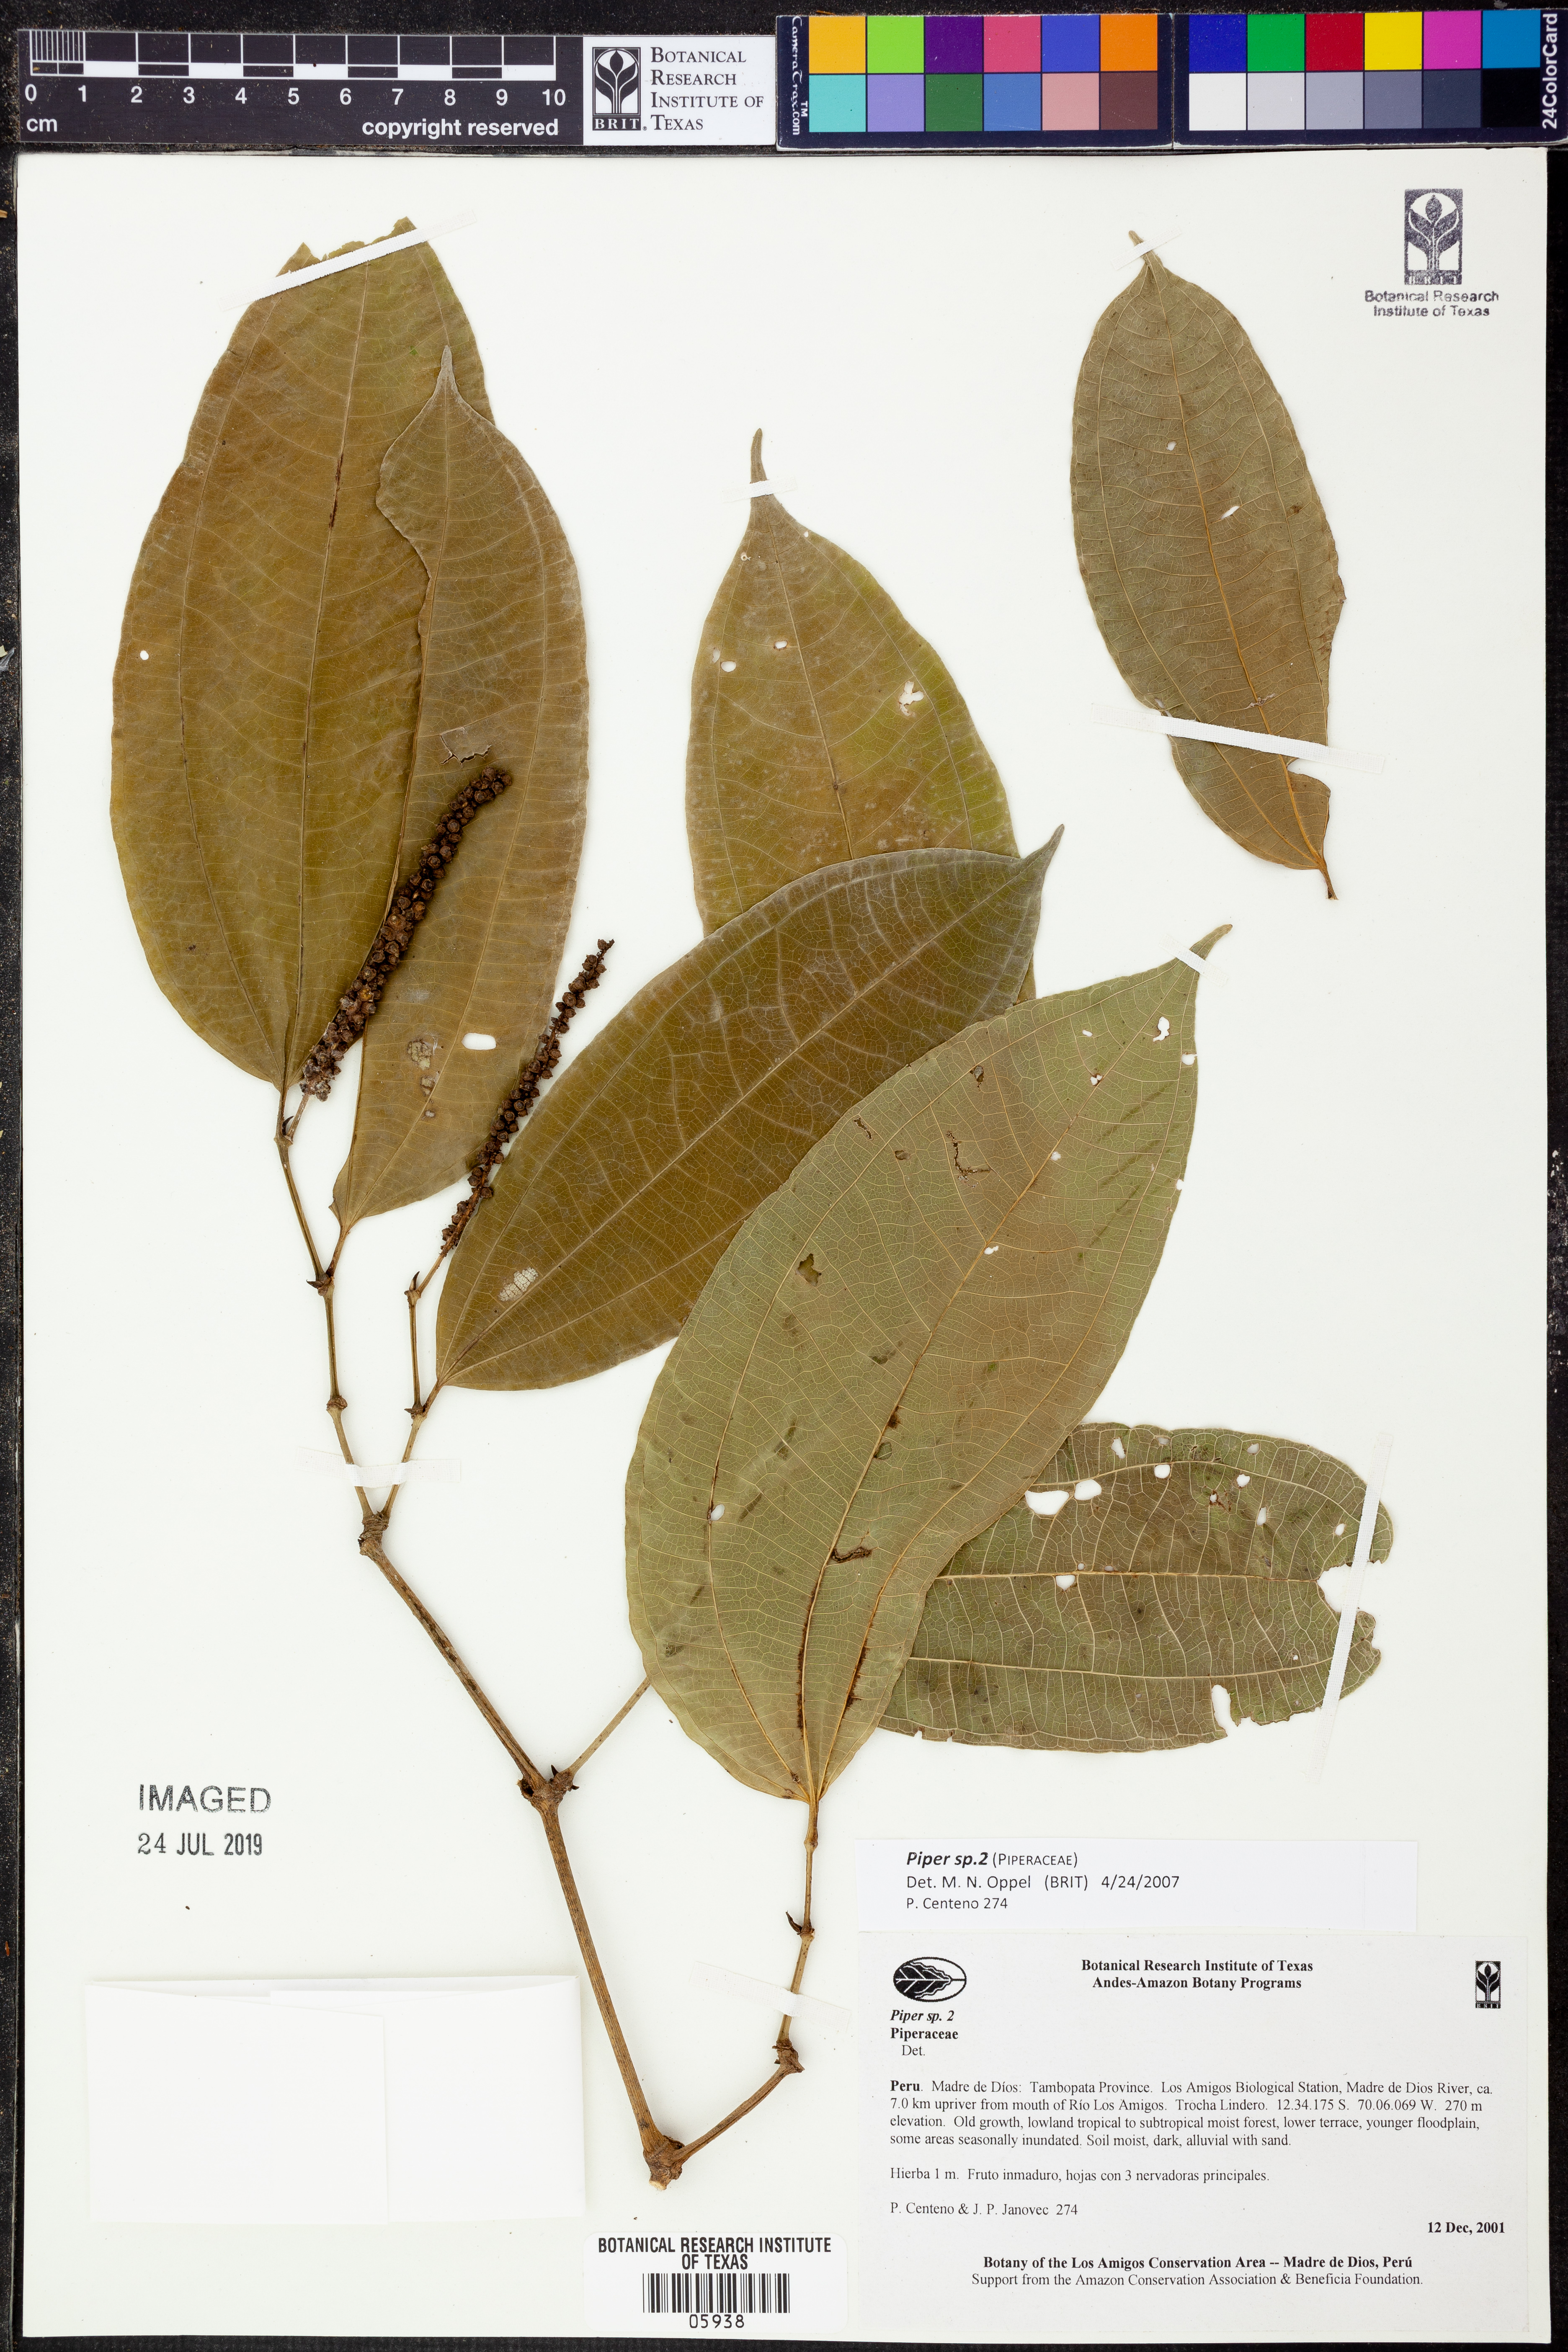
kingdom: Plantae
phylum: Tracheophyta
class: Magnoliopsida
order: Piperales
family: Piperaceae
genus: Piper
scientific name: Piper
